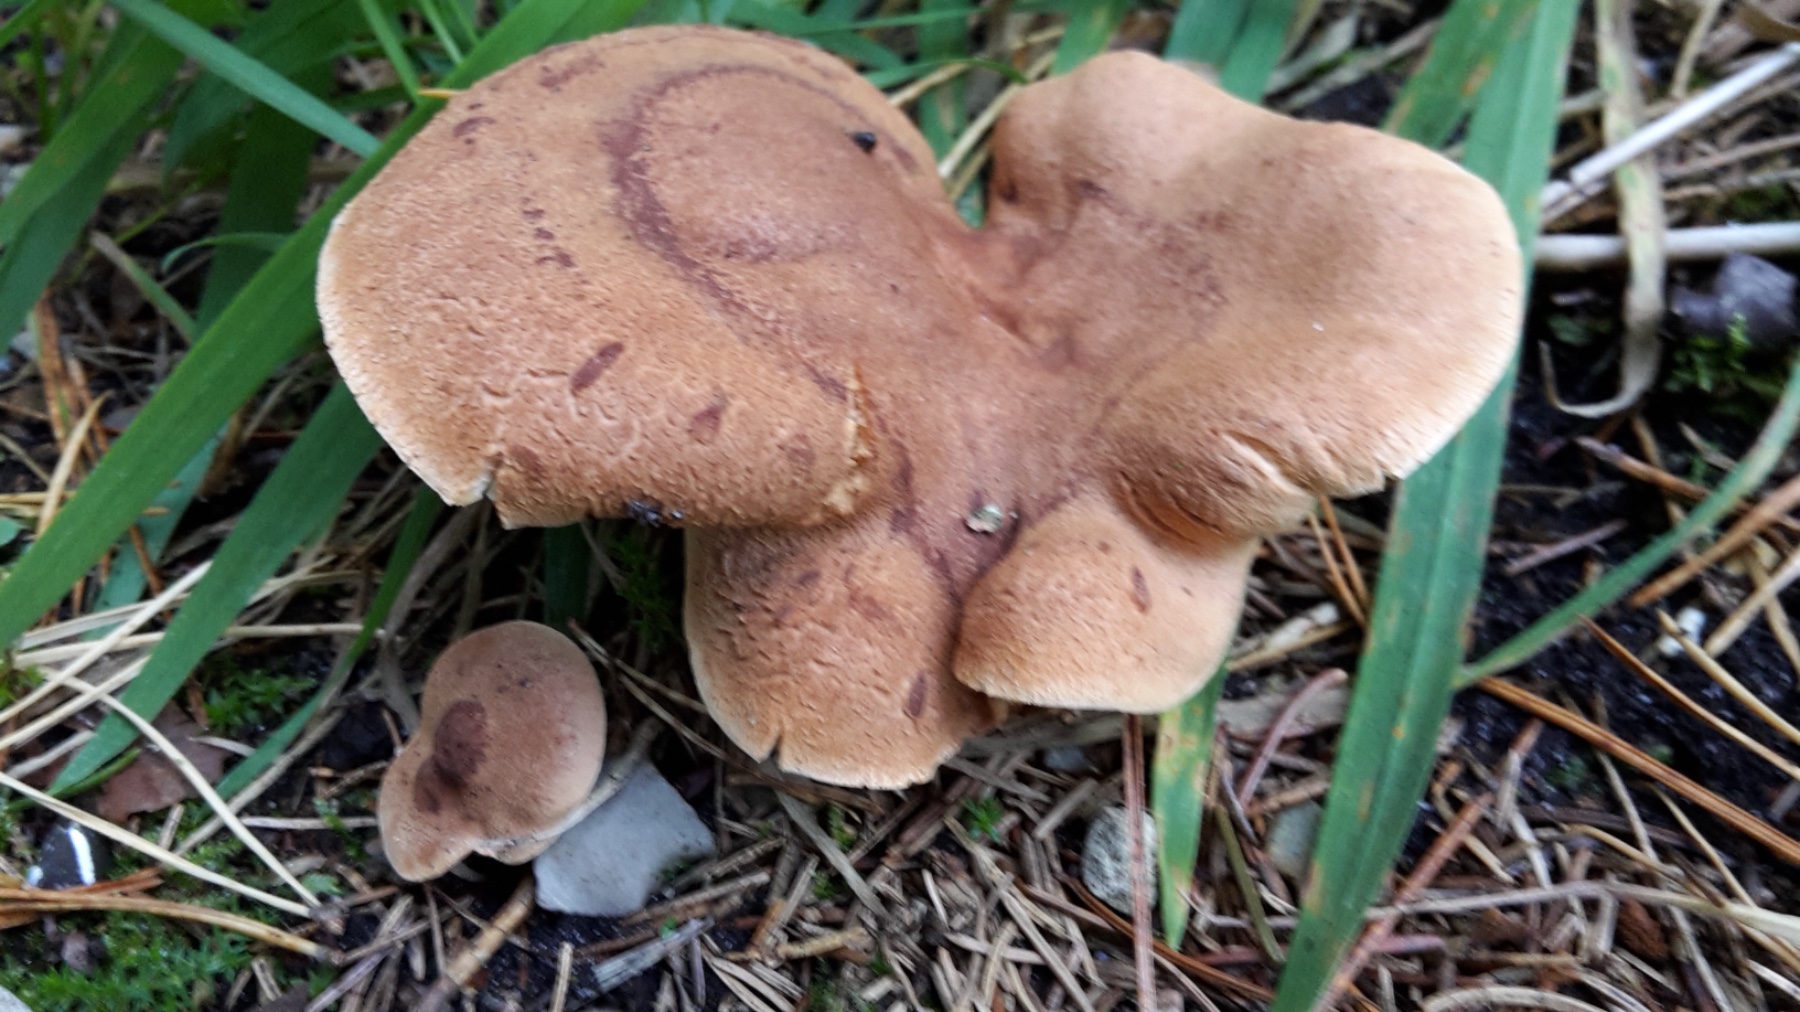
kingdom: Fungi
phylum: Basidiomycota
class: Agaricomycetes
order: Russulales
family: Russulaceae
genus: Lactarius
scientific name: Lactarius helvus
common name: mose-mælkehat
